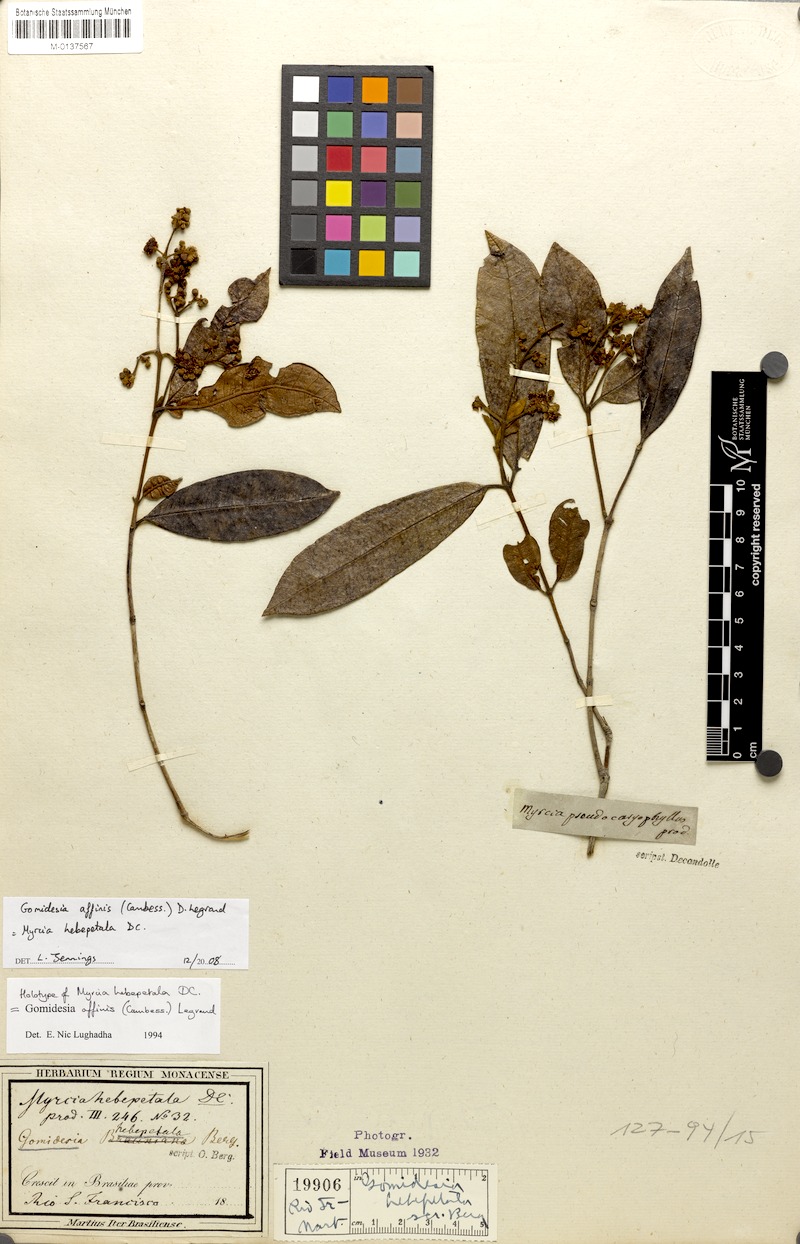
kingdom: Plantae
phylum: Tracheophyta
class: Magnoliopsida
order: Myrtales
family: Myrtaceae
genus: Myrcia
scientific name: Myrcia hebepetala
